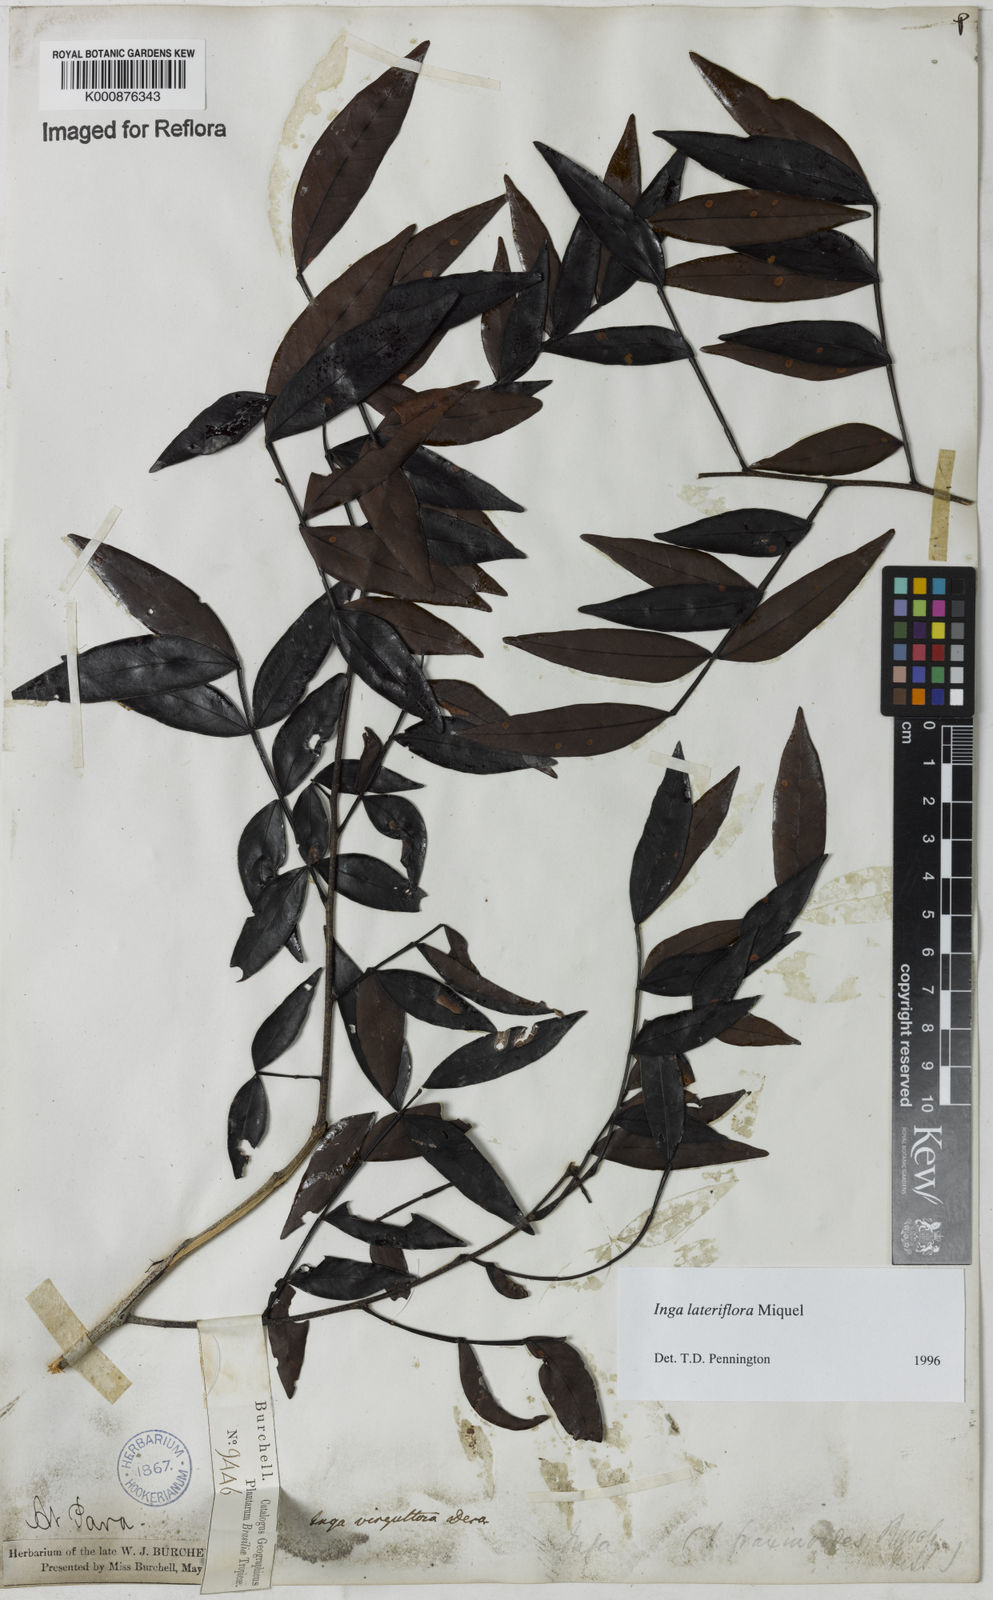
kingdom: Plantae
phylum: Tracheophyta
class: Magnoliopsida
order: Fabales
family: Fabaceae
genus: Inga
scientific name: Inga lateriflora
